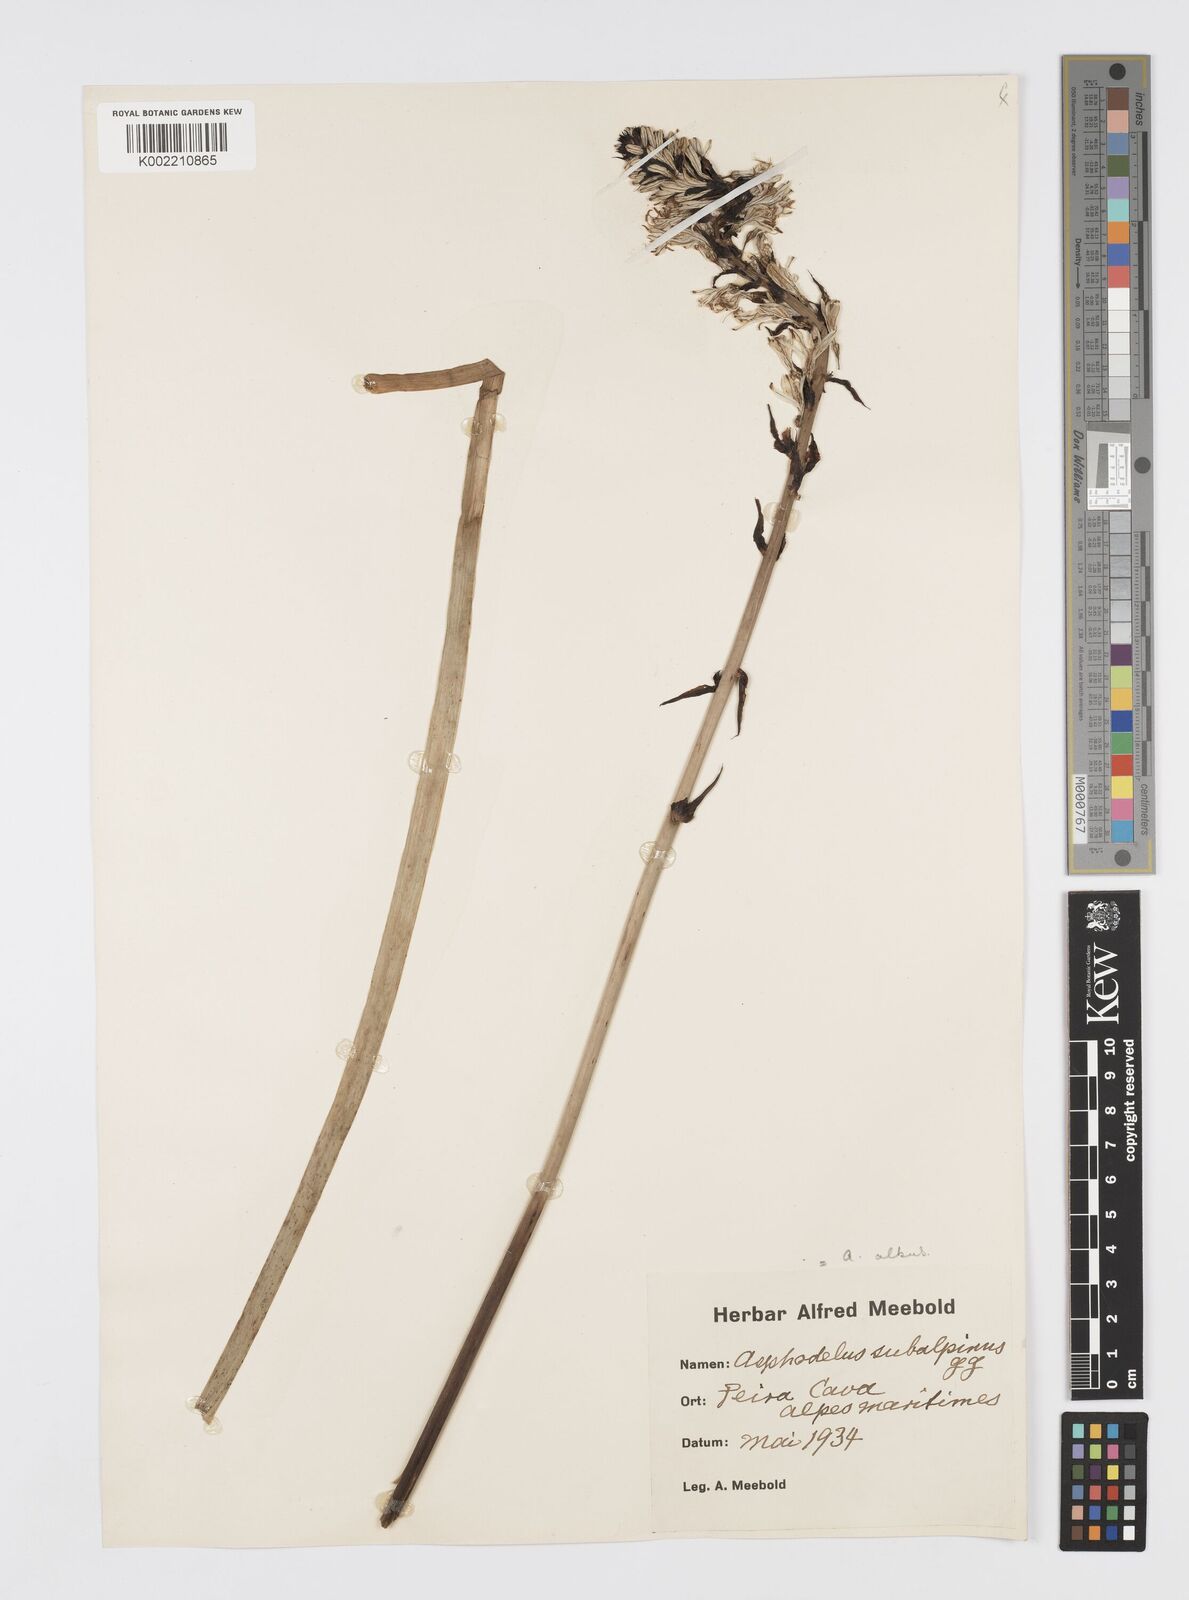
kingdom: Plantae
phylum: Tracheophyta
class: Liliopsida
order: Asparagales
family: Asphodelaceae
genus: Asphodelus
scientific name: Asphodelus albus
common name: White asphodel
